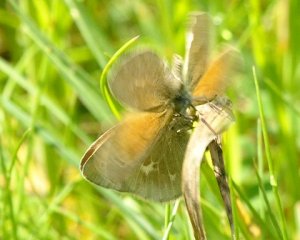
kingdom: Animalia
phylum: Arthropoda
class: Insecta
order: Lepidoptera
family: Nymphalidae
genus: Coenonympha
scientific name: Coenonympha tullia
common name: Large Heath
